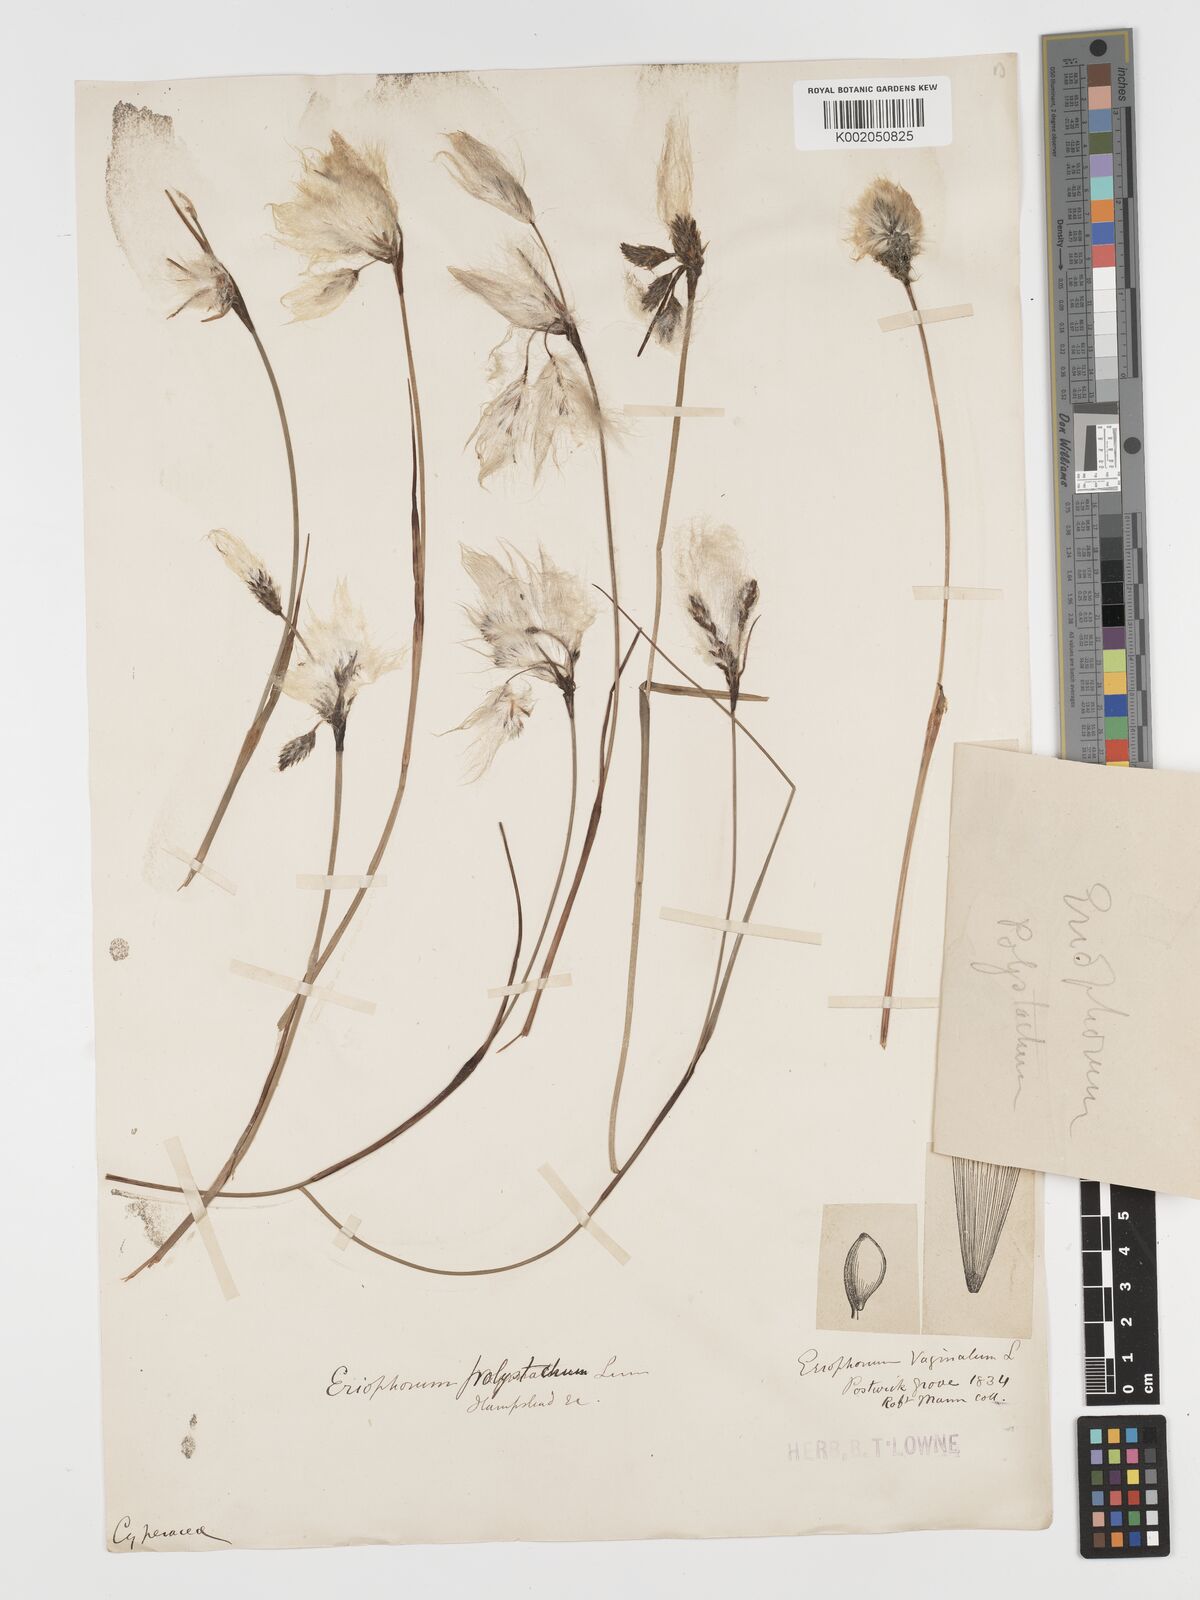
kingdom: Plantae
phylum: Tracheophyta
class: Liliopsida
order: Poales
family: Cyperaceae
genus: Eriophorum
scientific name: Eriophorum angustifolium
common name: Common cottongrass
